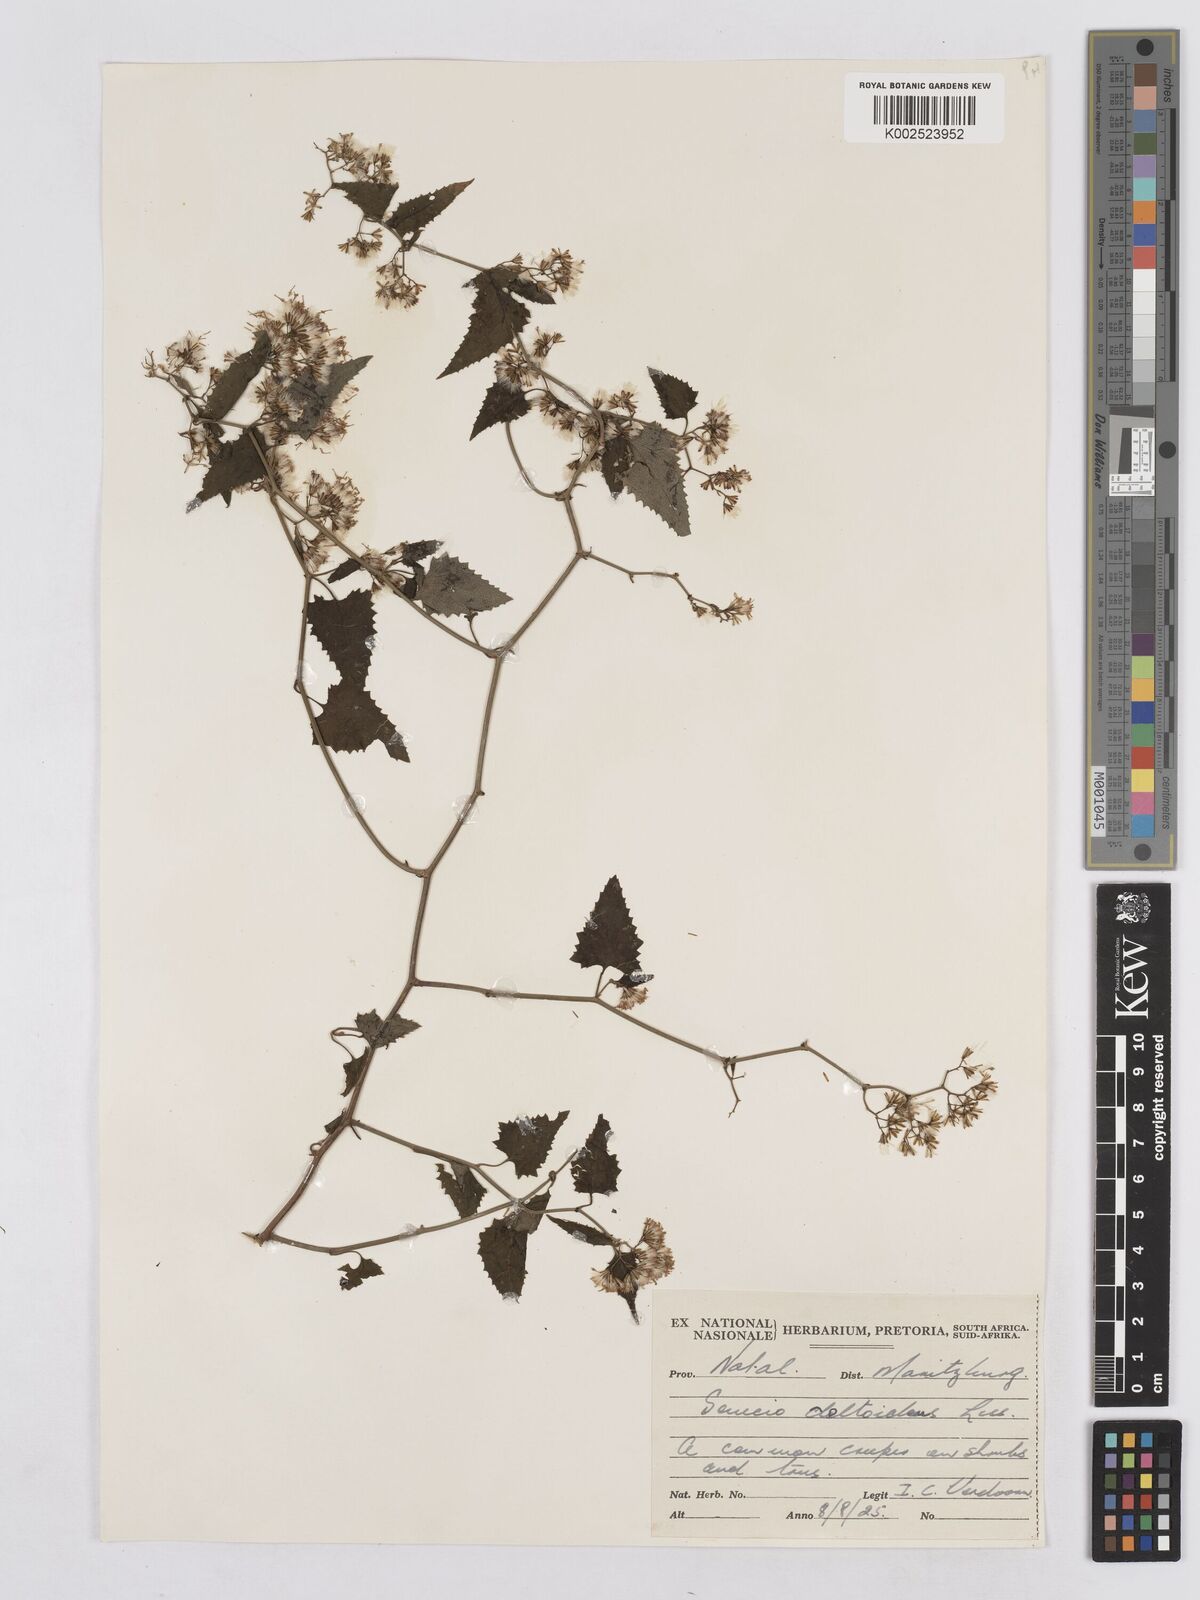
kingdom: Plantae
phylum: Tracheophyta
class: Magnoliopsida
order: Asterales
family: Asteraceae
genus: Senecio
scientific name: Senecio deltoideus
